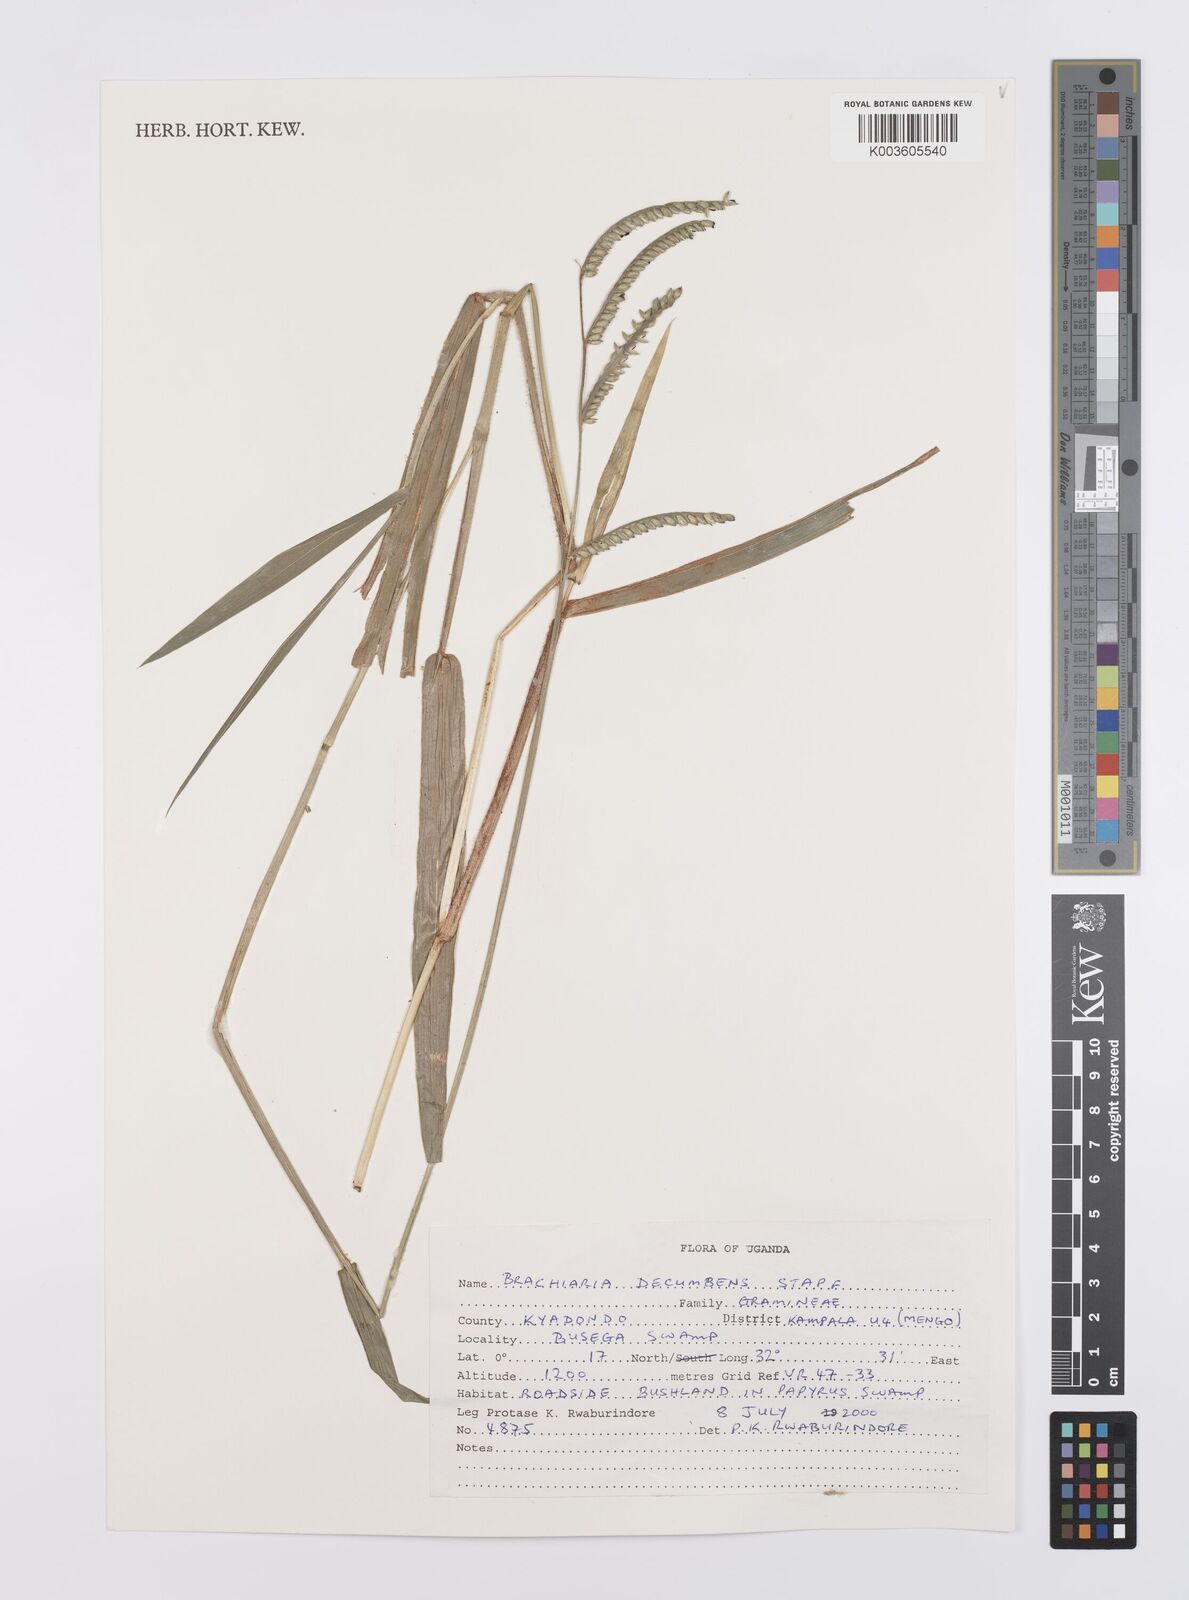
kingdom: Plantae
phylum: Tracheophyta
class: Liliopsida
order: Poales
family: Poaceae
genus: Urochloa
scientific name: Urochloa eminii
